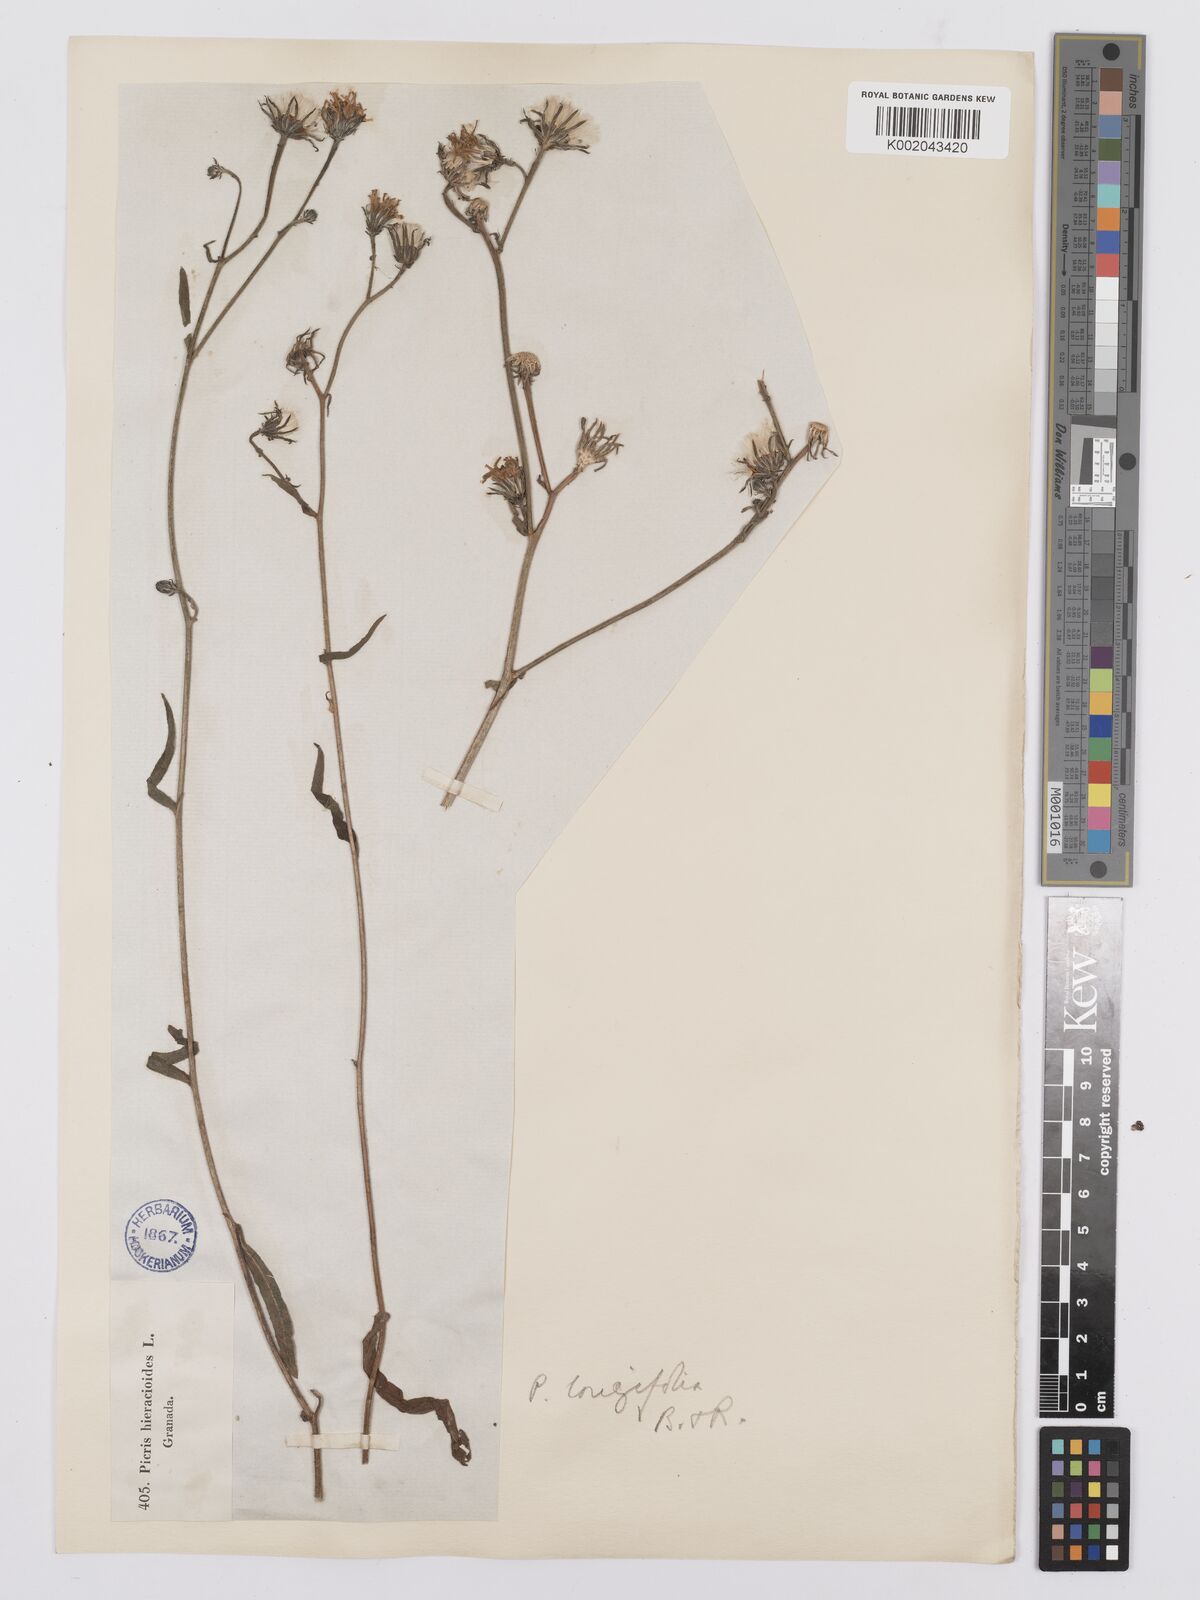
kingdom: Plantae
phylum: Tracheophyta
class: Magnoliopsida
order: Asterales
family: Asteraceae
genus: Picris
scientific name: Picris hieracioides
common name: Hawkweed oxtongue
